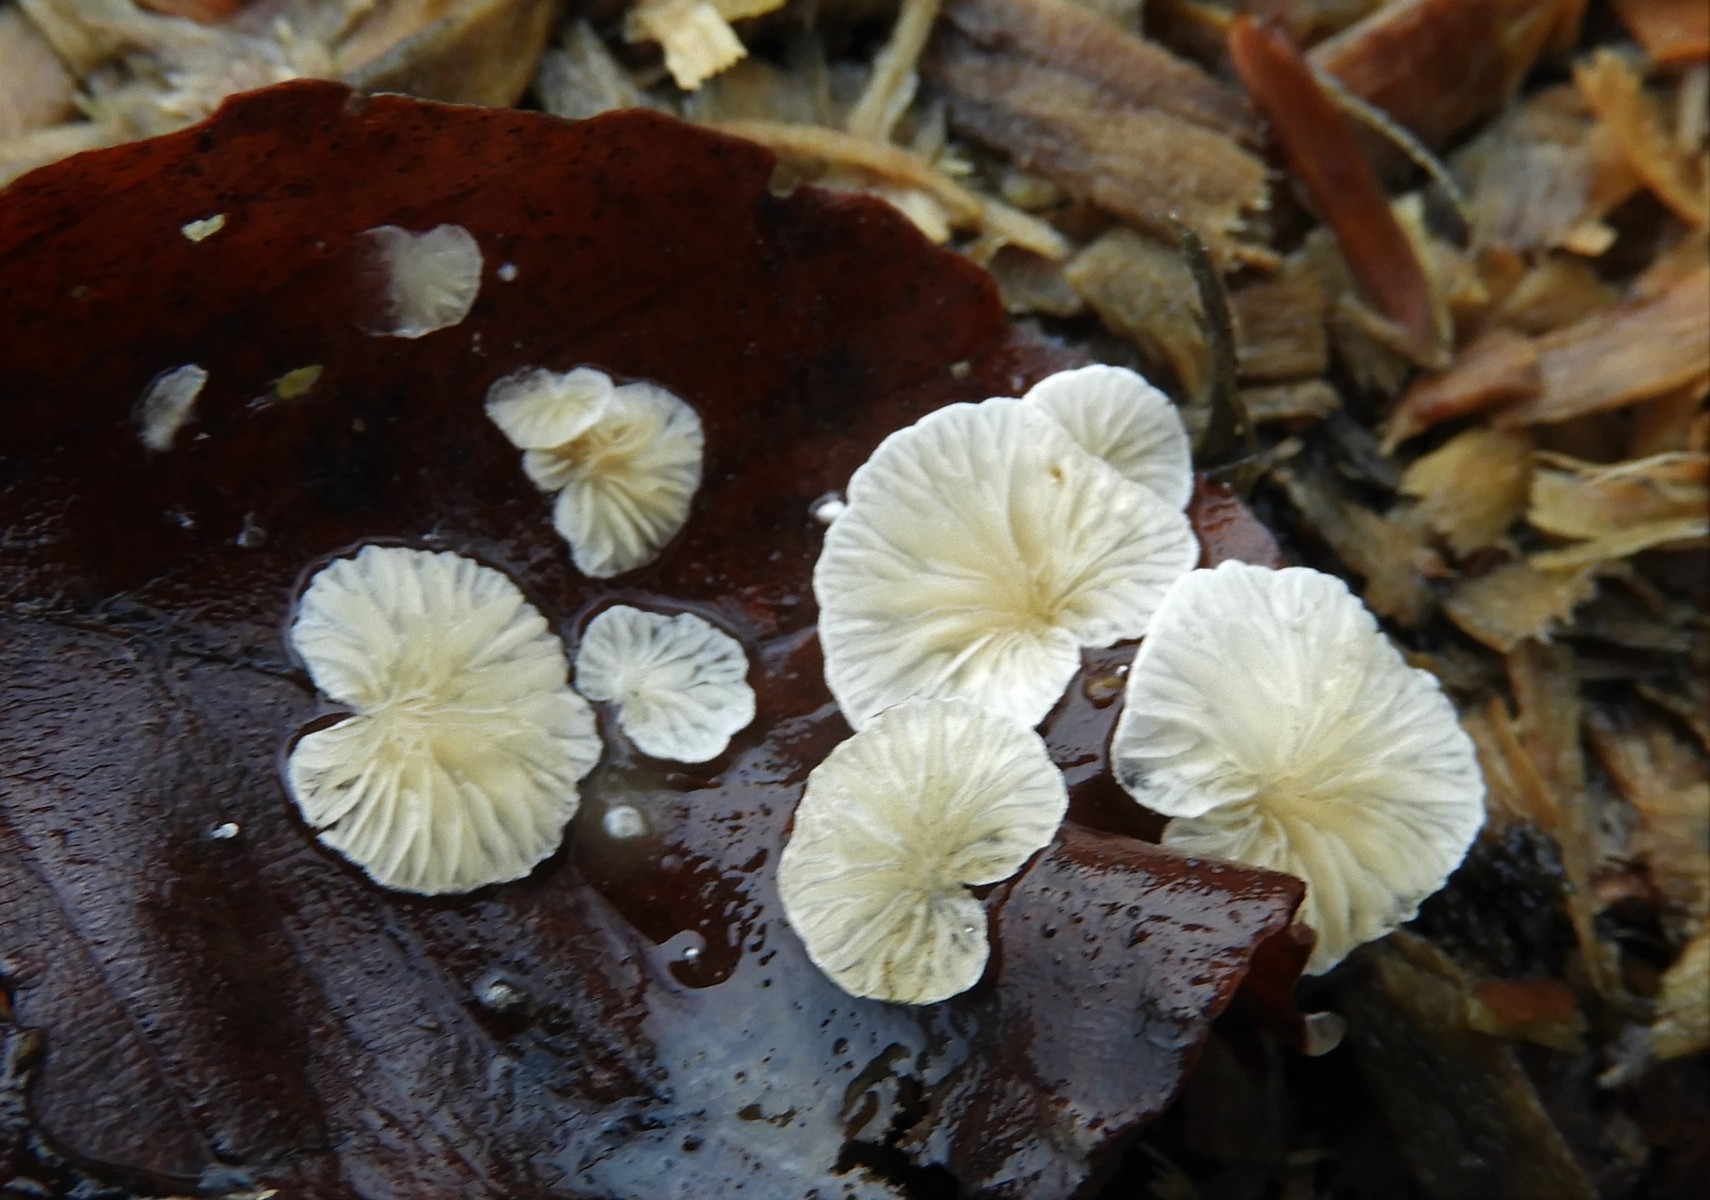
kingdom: Fungi
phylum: Basidiomycota
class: Agaricomycetes
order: Agaricales
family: Crepidotaceae
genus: Crepidotus
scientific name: Crepidotus epibryus
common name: førne-muslingesvamp
